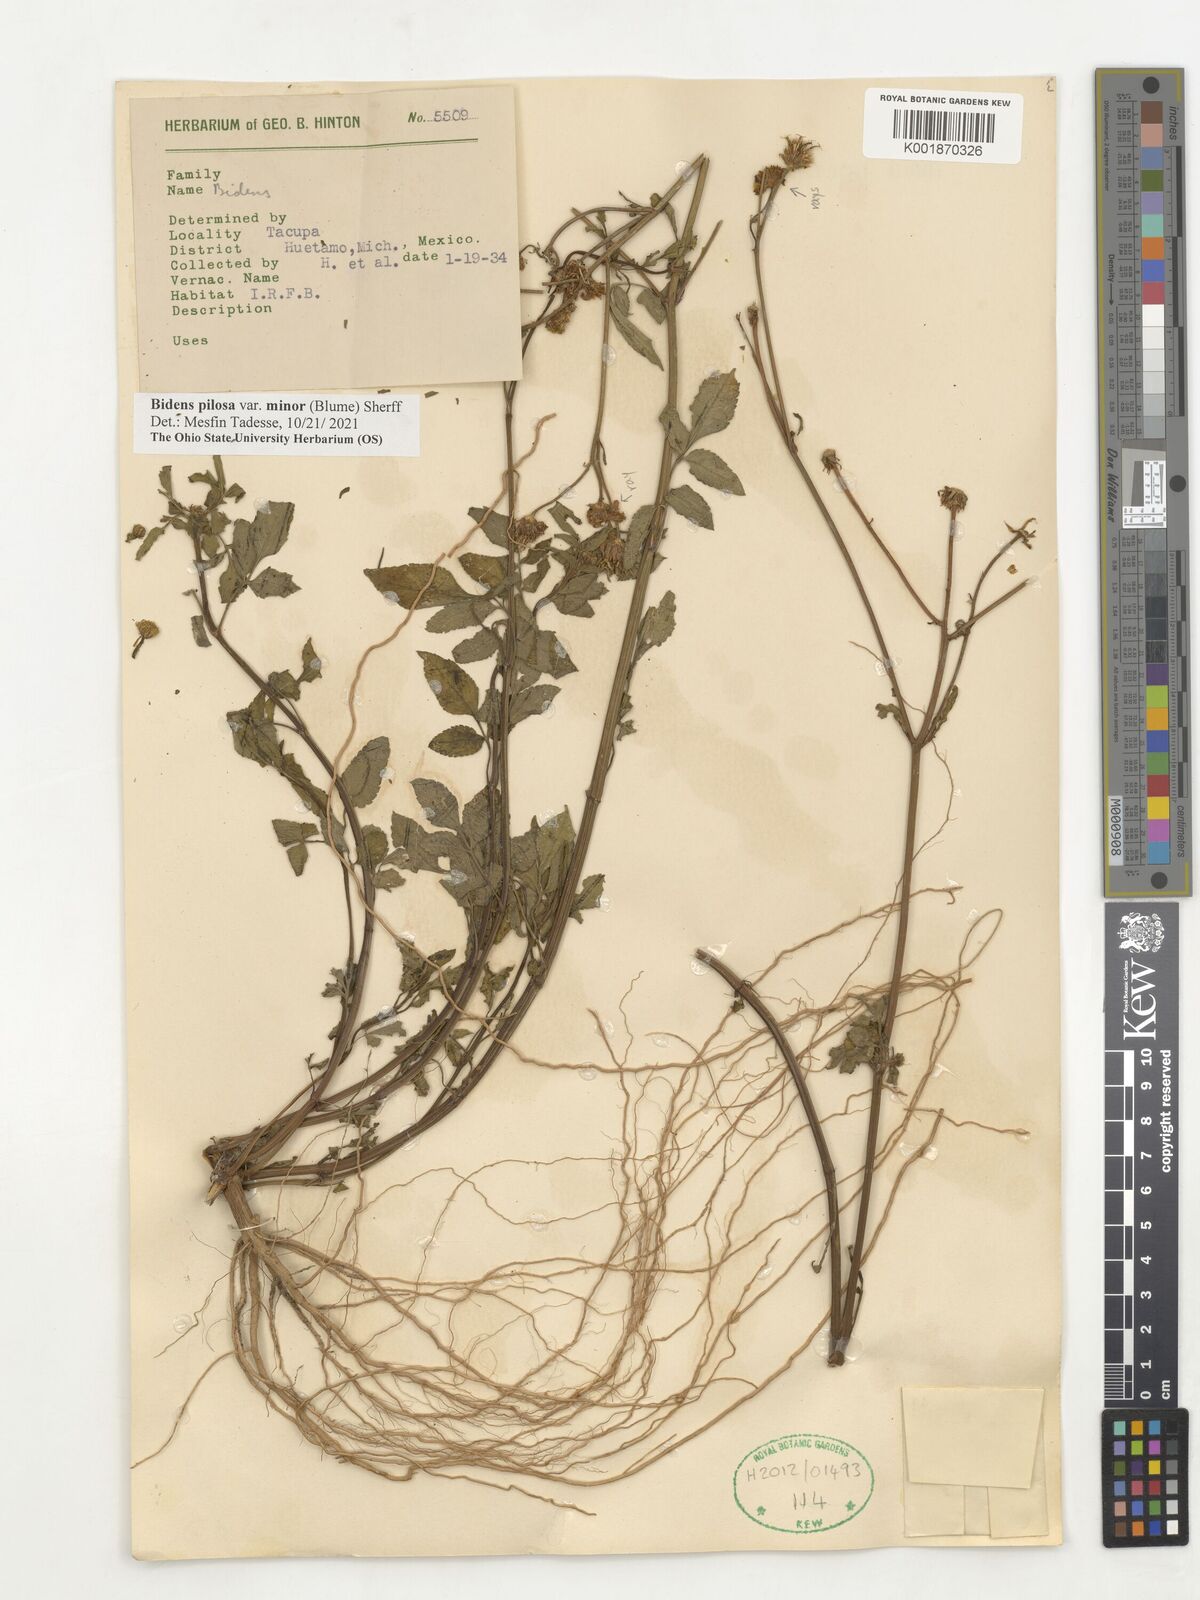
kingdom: Plantae
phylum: Tracheophyta
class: Magnoliopsida
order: Asterales
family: Asteraceae
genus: Bidens
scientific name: Bidens pilosa
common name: Black-jack
